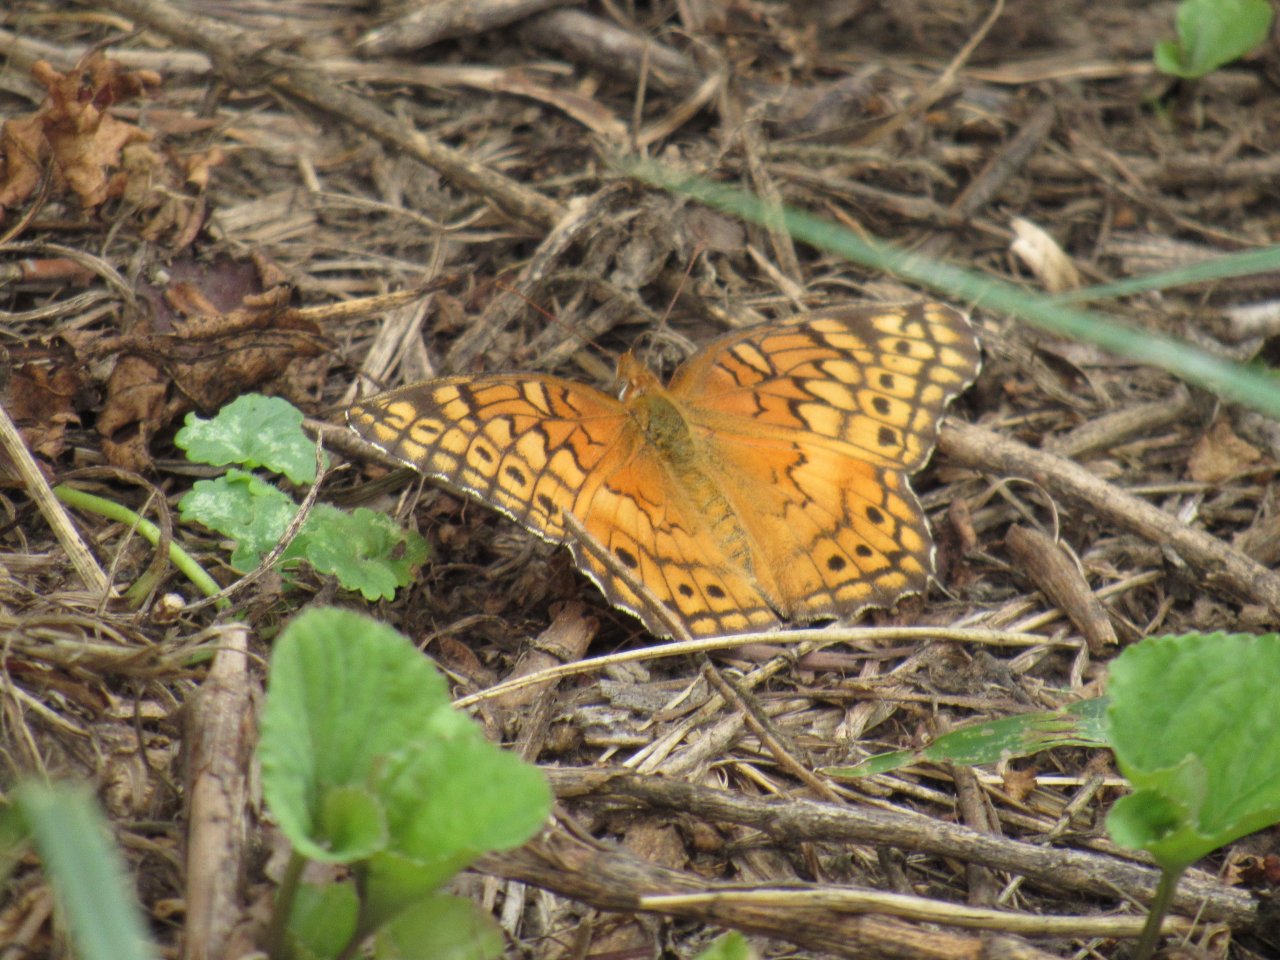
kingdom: Animalia
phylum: Arthropoda
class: Insecta
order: Lepidoptera
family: Nymphalidae
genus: Euptoieta
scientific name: Euptoieta claudia
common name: Variegated Fritillary
